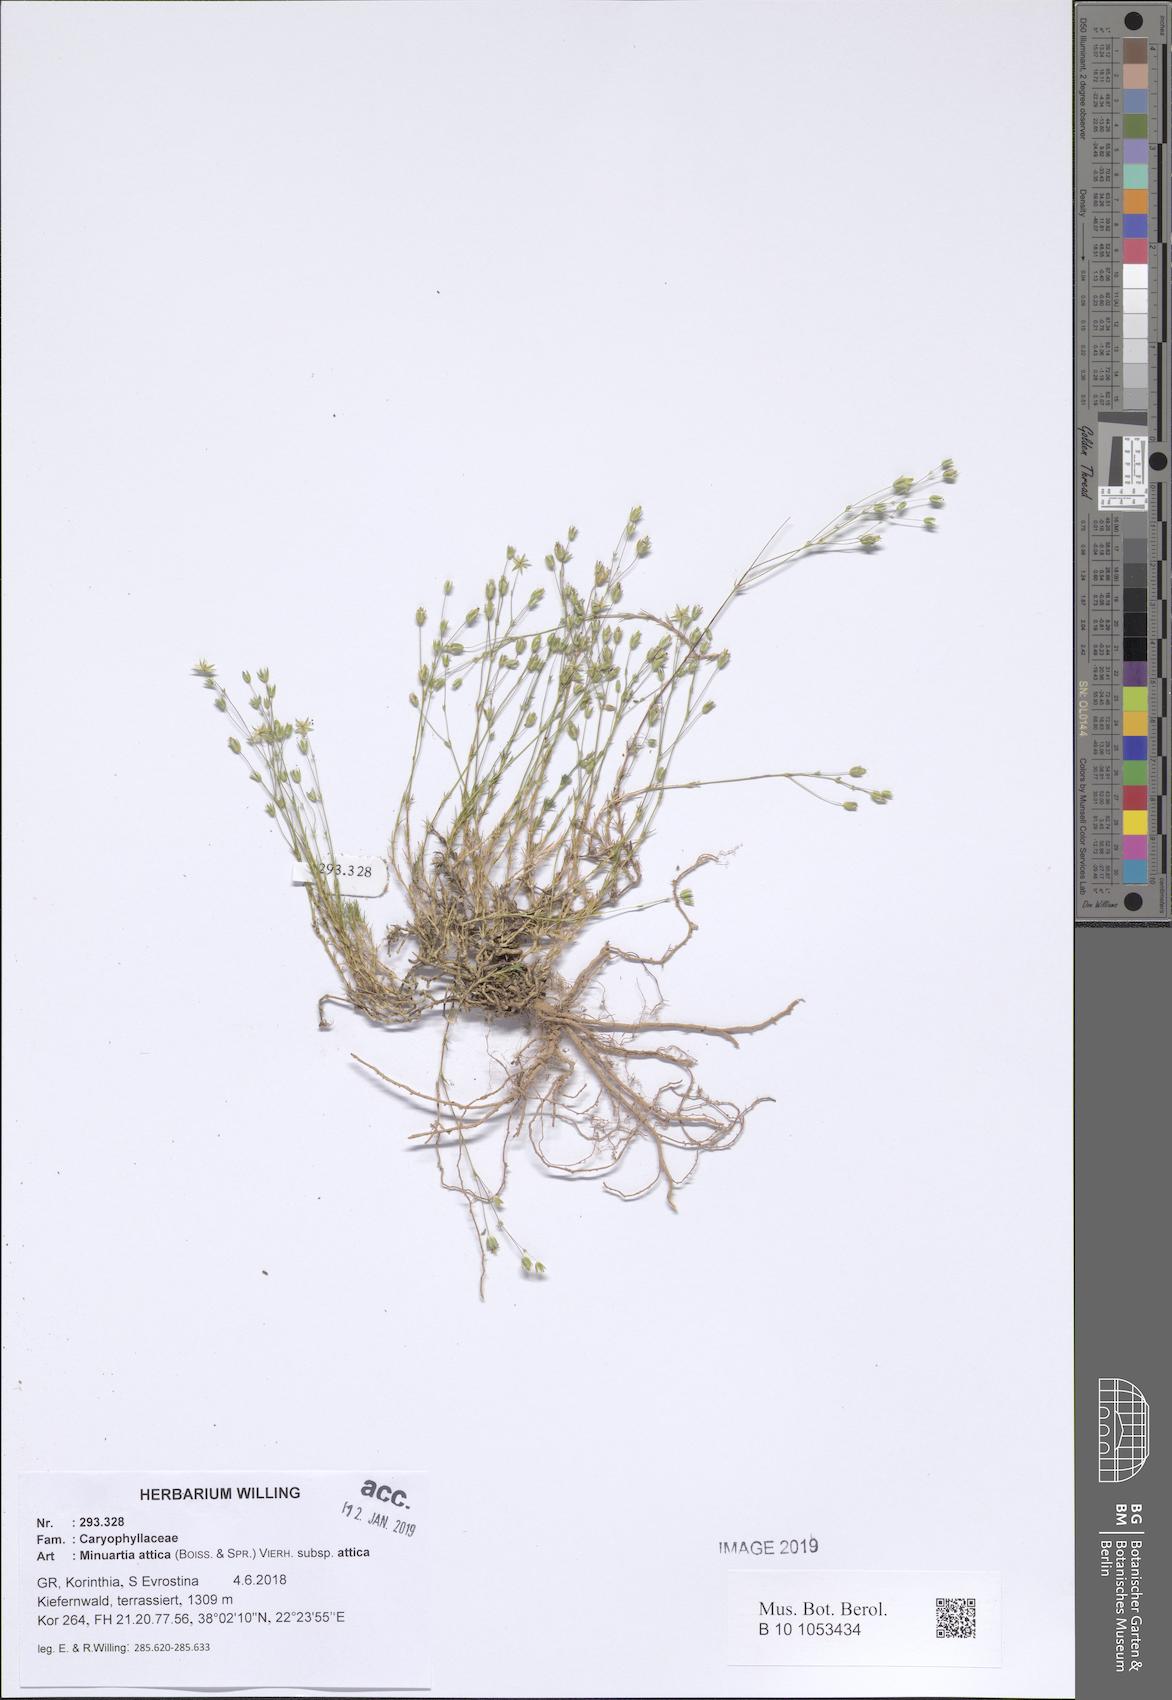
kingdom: Plantae
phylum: Tracheophyta
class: Magnoliopsida
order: Caryophyllales
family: Caryophyllaceae
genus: Sabulina
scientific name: Sabulina attica
